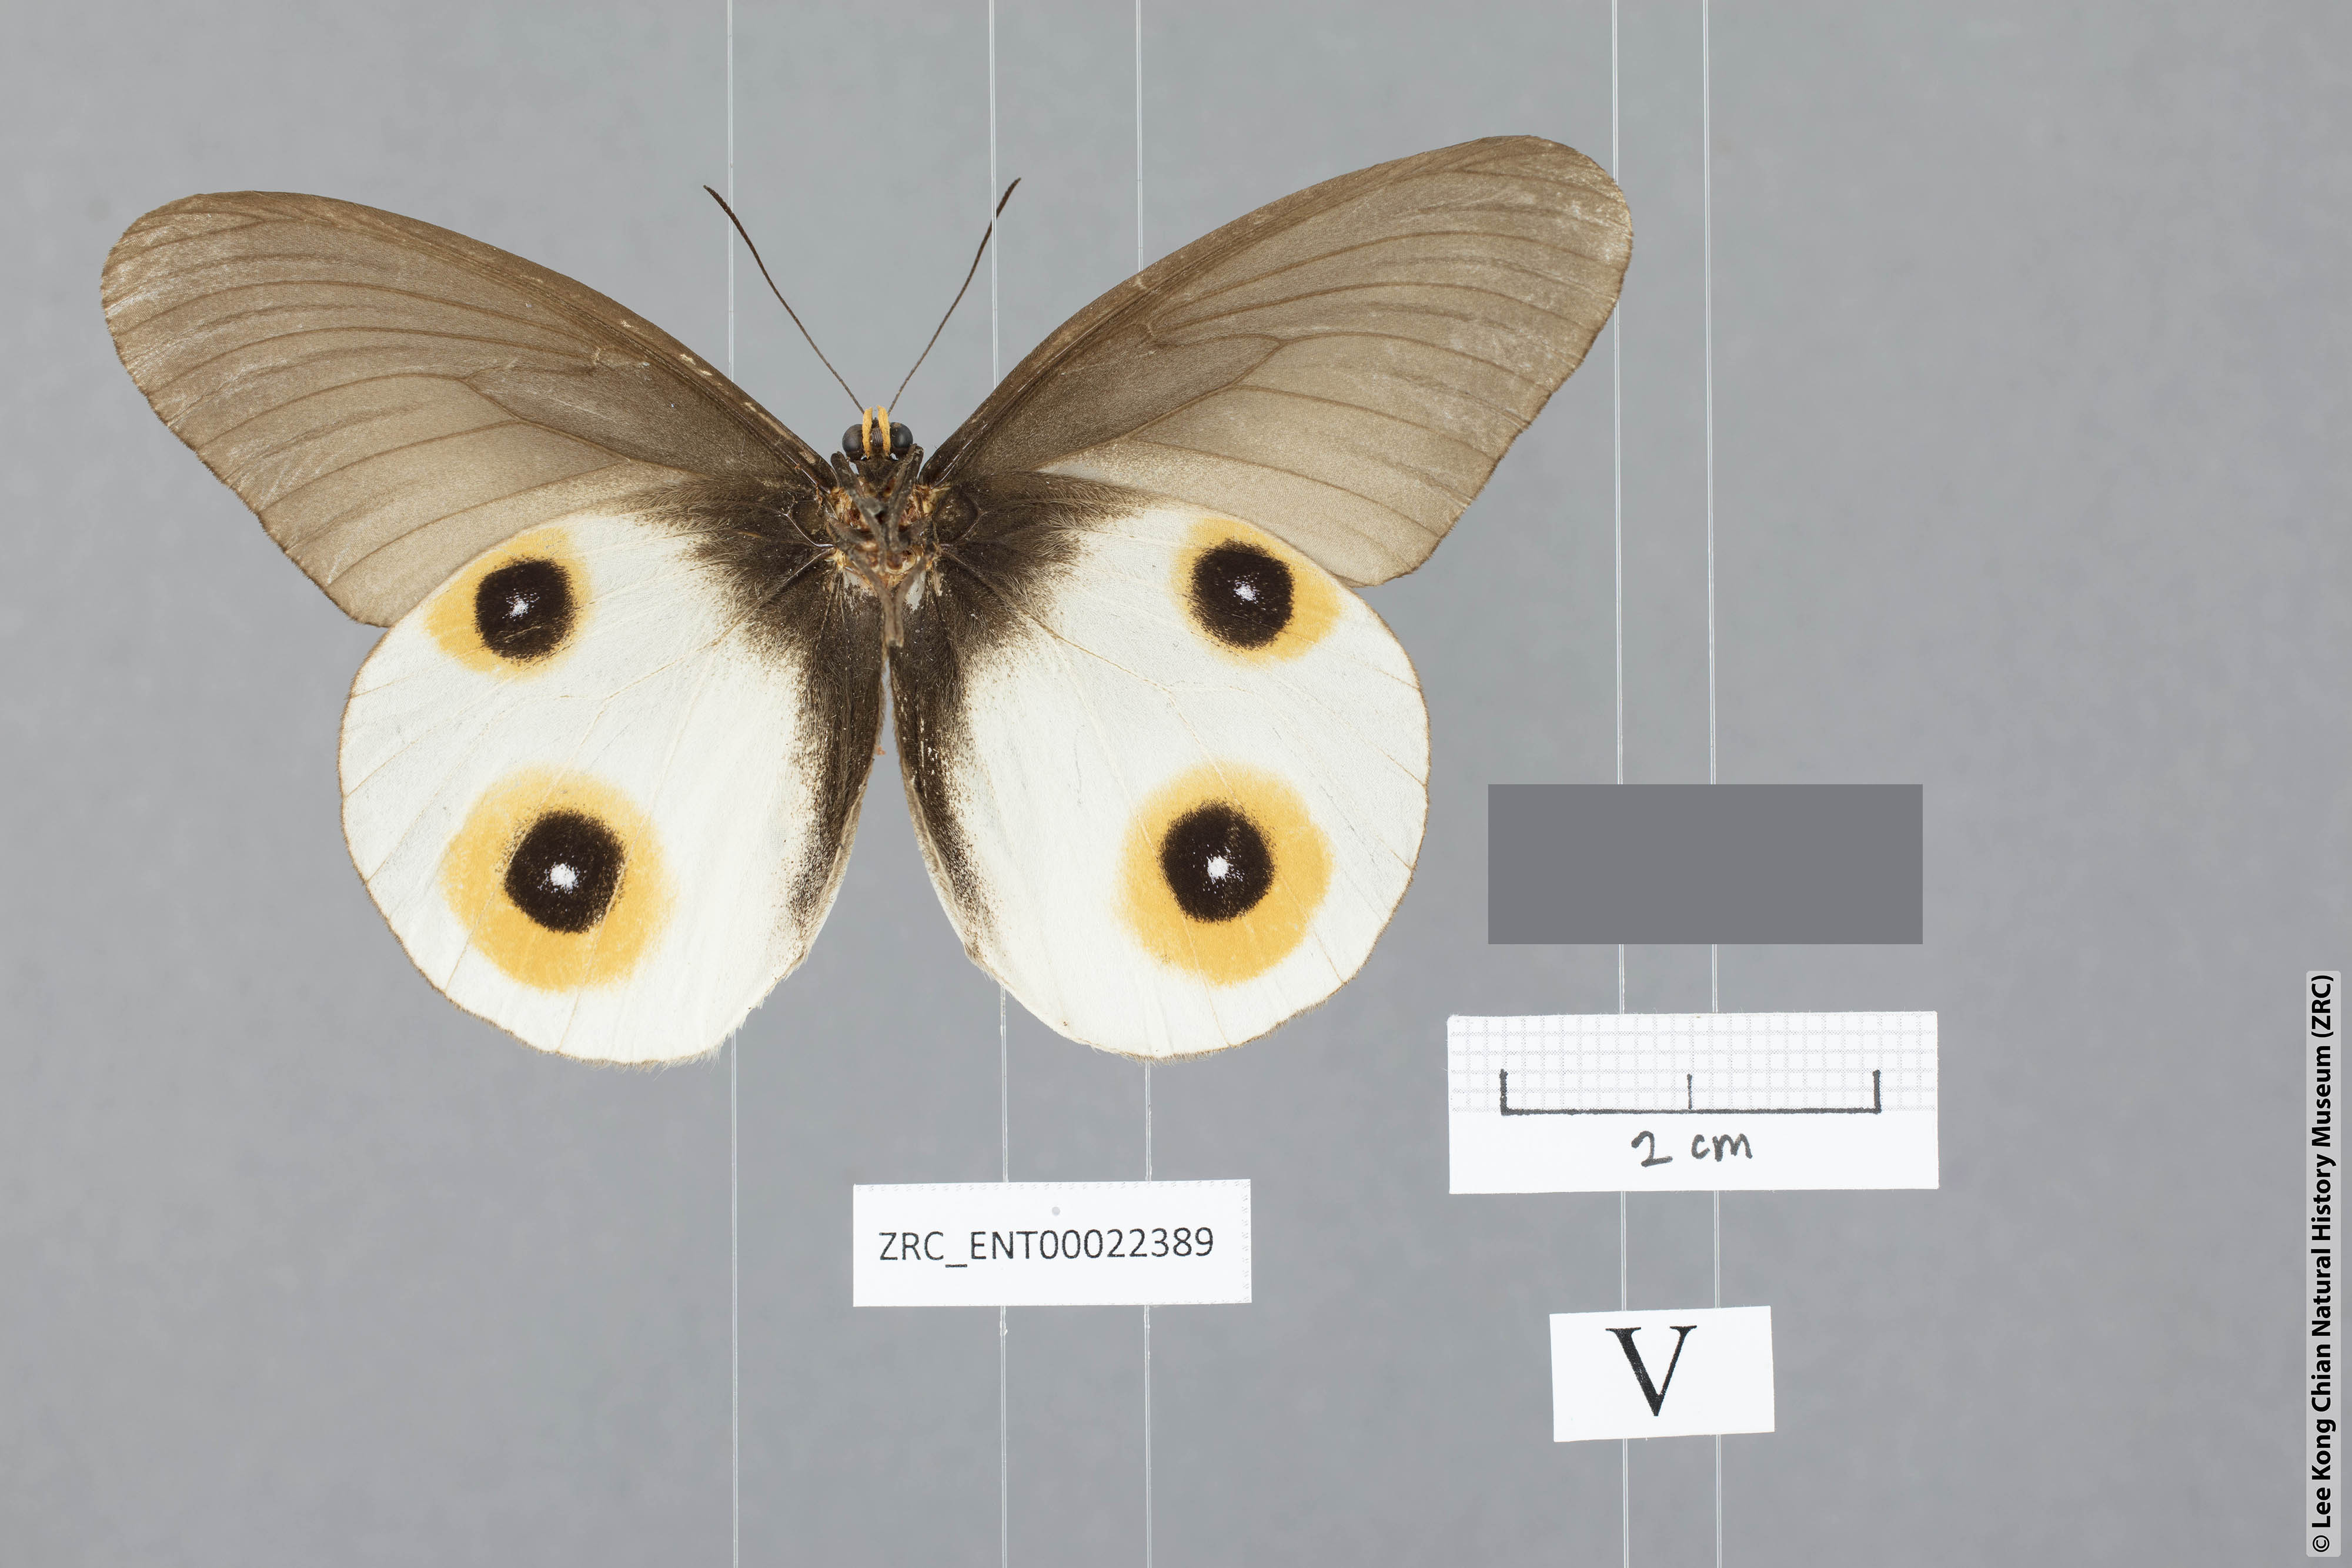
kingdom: Animalia
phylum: Arthropoda
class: Insecta
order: Lepidoptera
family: Nymphalidae
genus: Taenaris
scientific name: Taenaris horsfieldii
